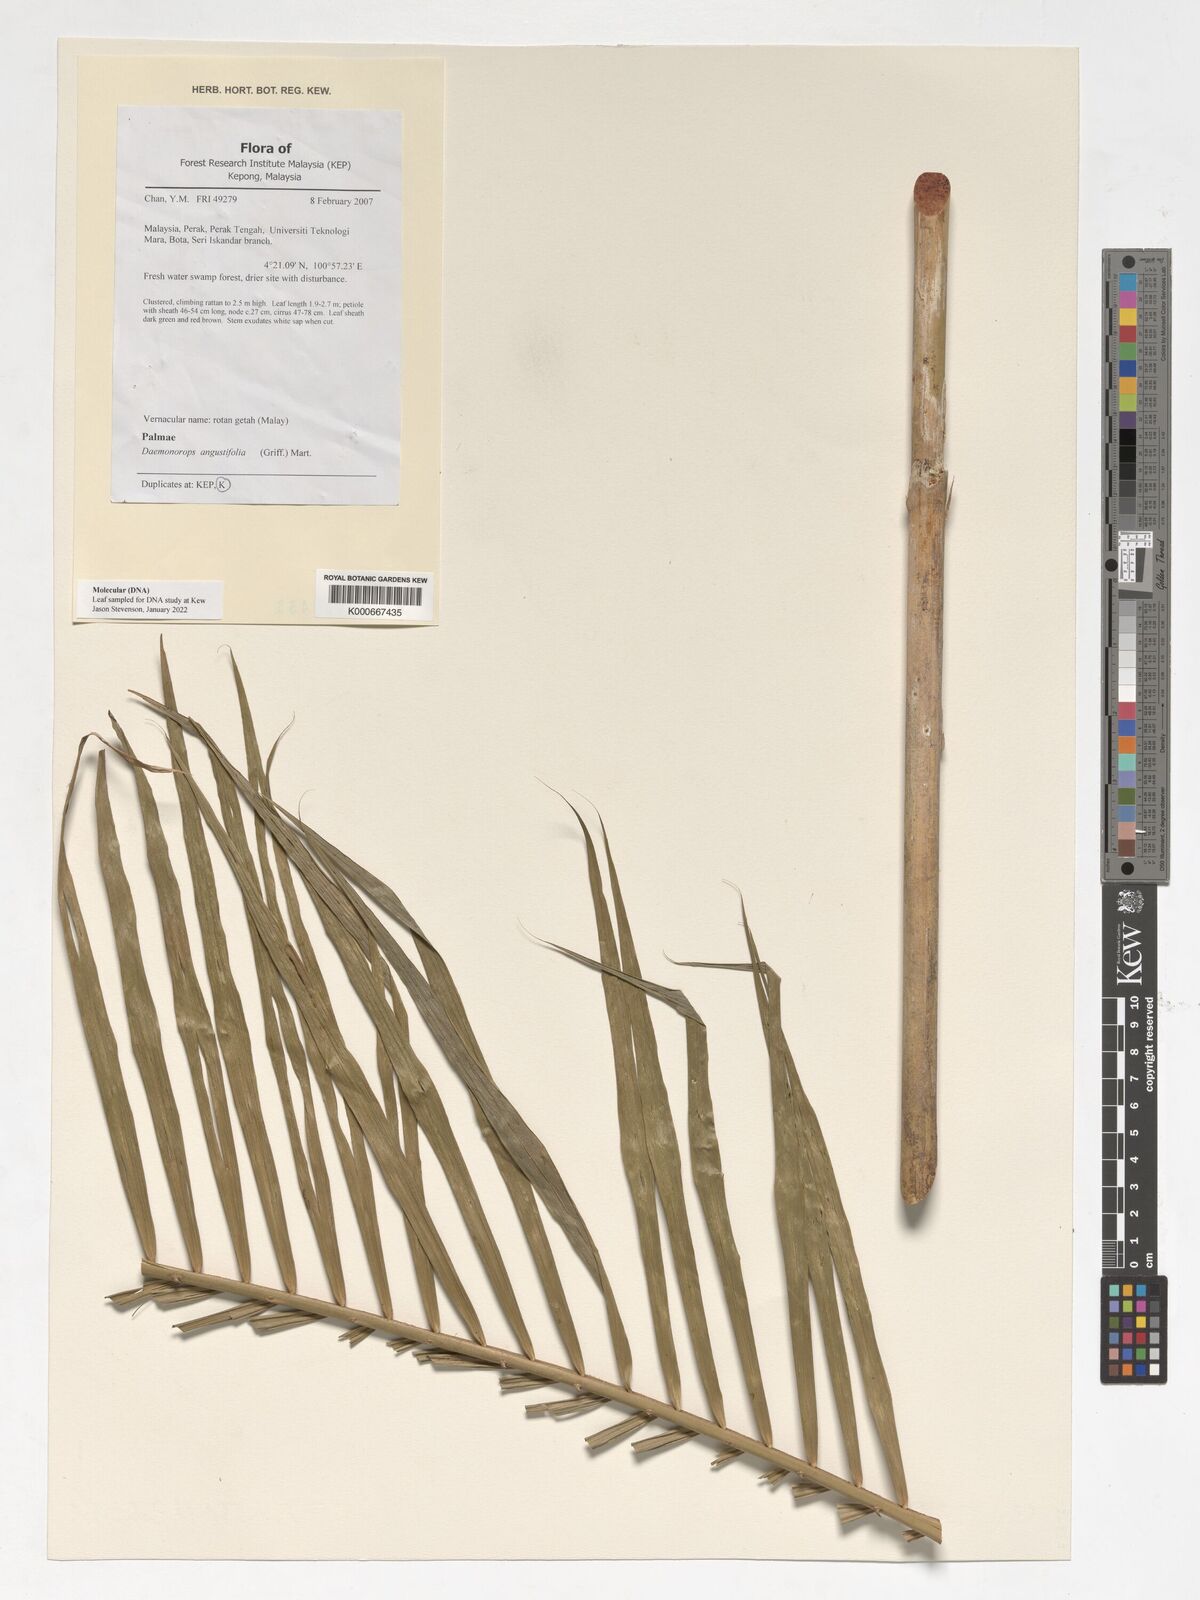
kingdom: Plantae
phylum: Tracheophyta
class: Liliopsida
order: Arecales
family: Arecaceae
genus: Calamus
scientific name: Calamus melanochaetes
